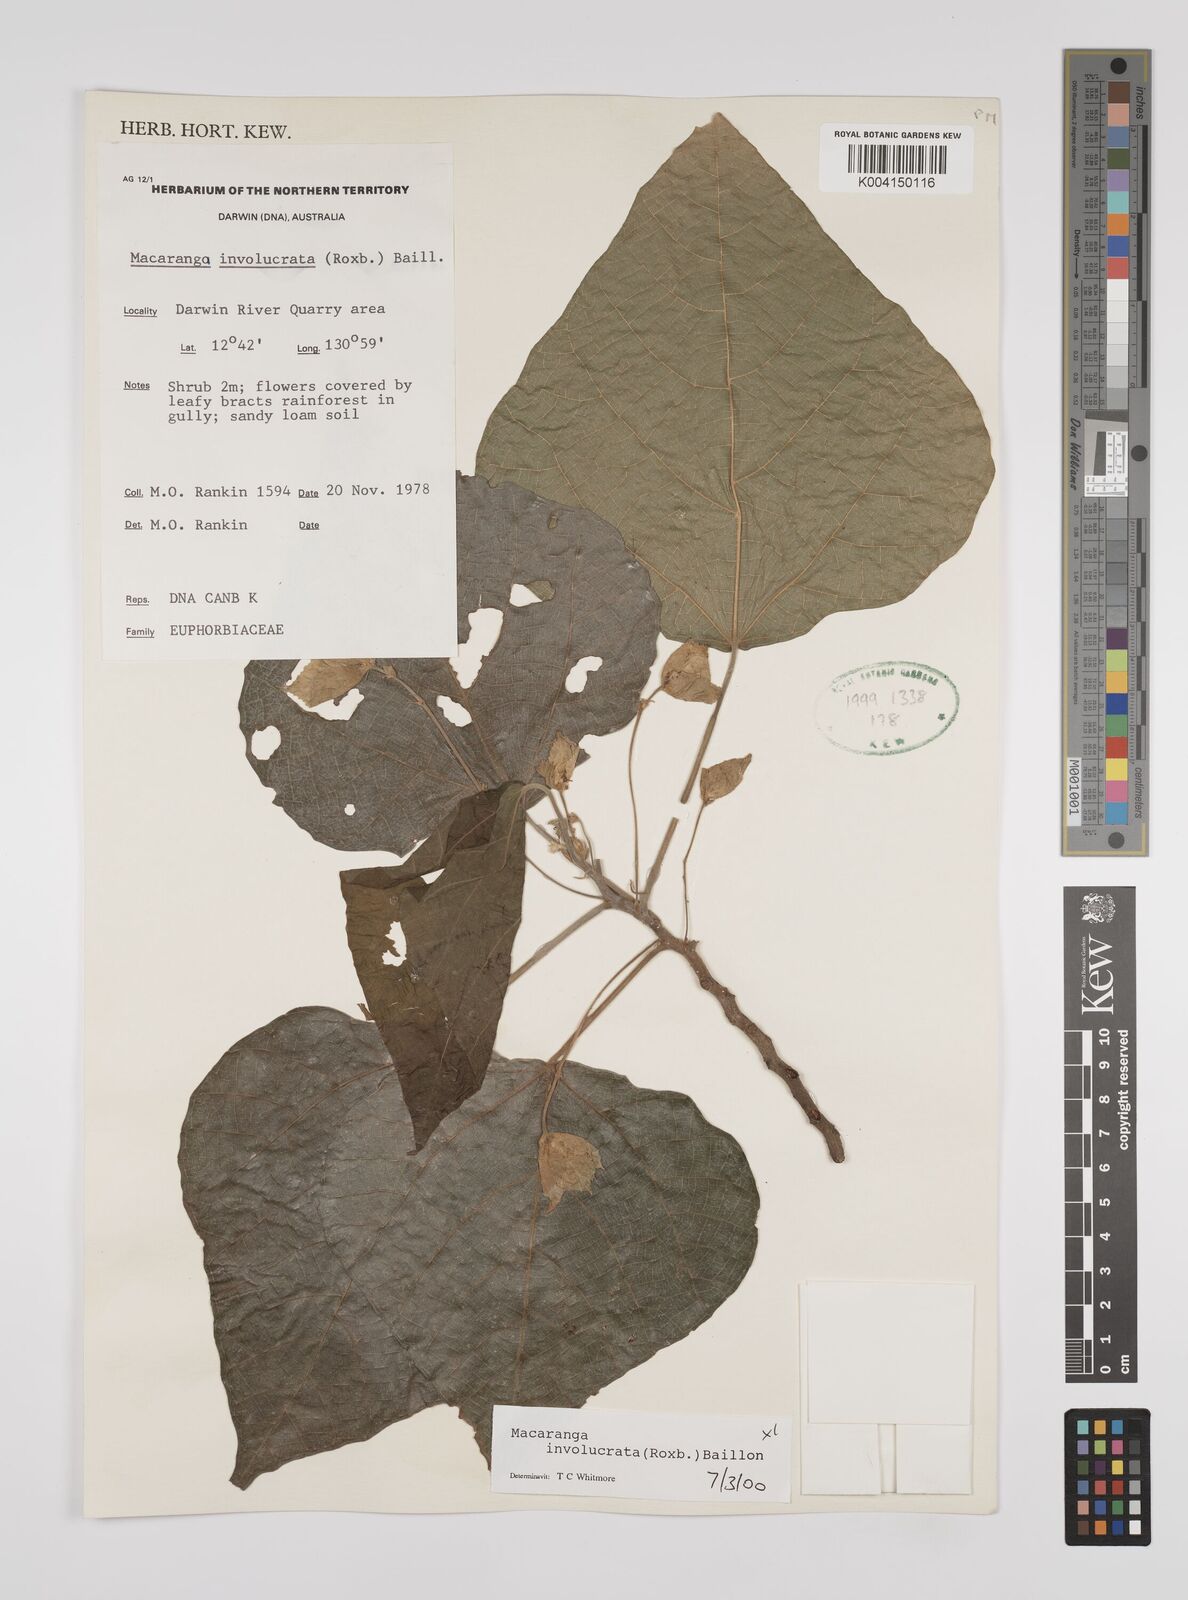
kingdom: Plantae
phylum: Tracheophyta
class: Magnoliopsida
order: Malpighiales
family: Euphorbiaceae
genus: Macaranga
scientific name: Macaranga involucrata
